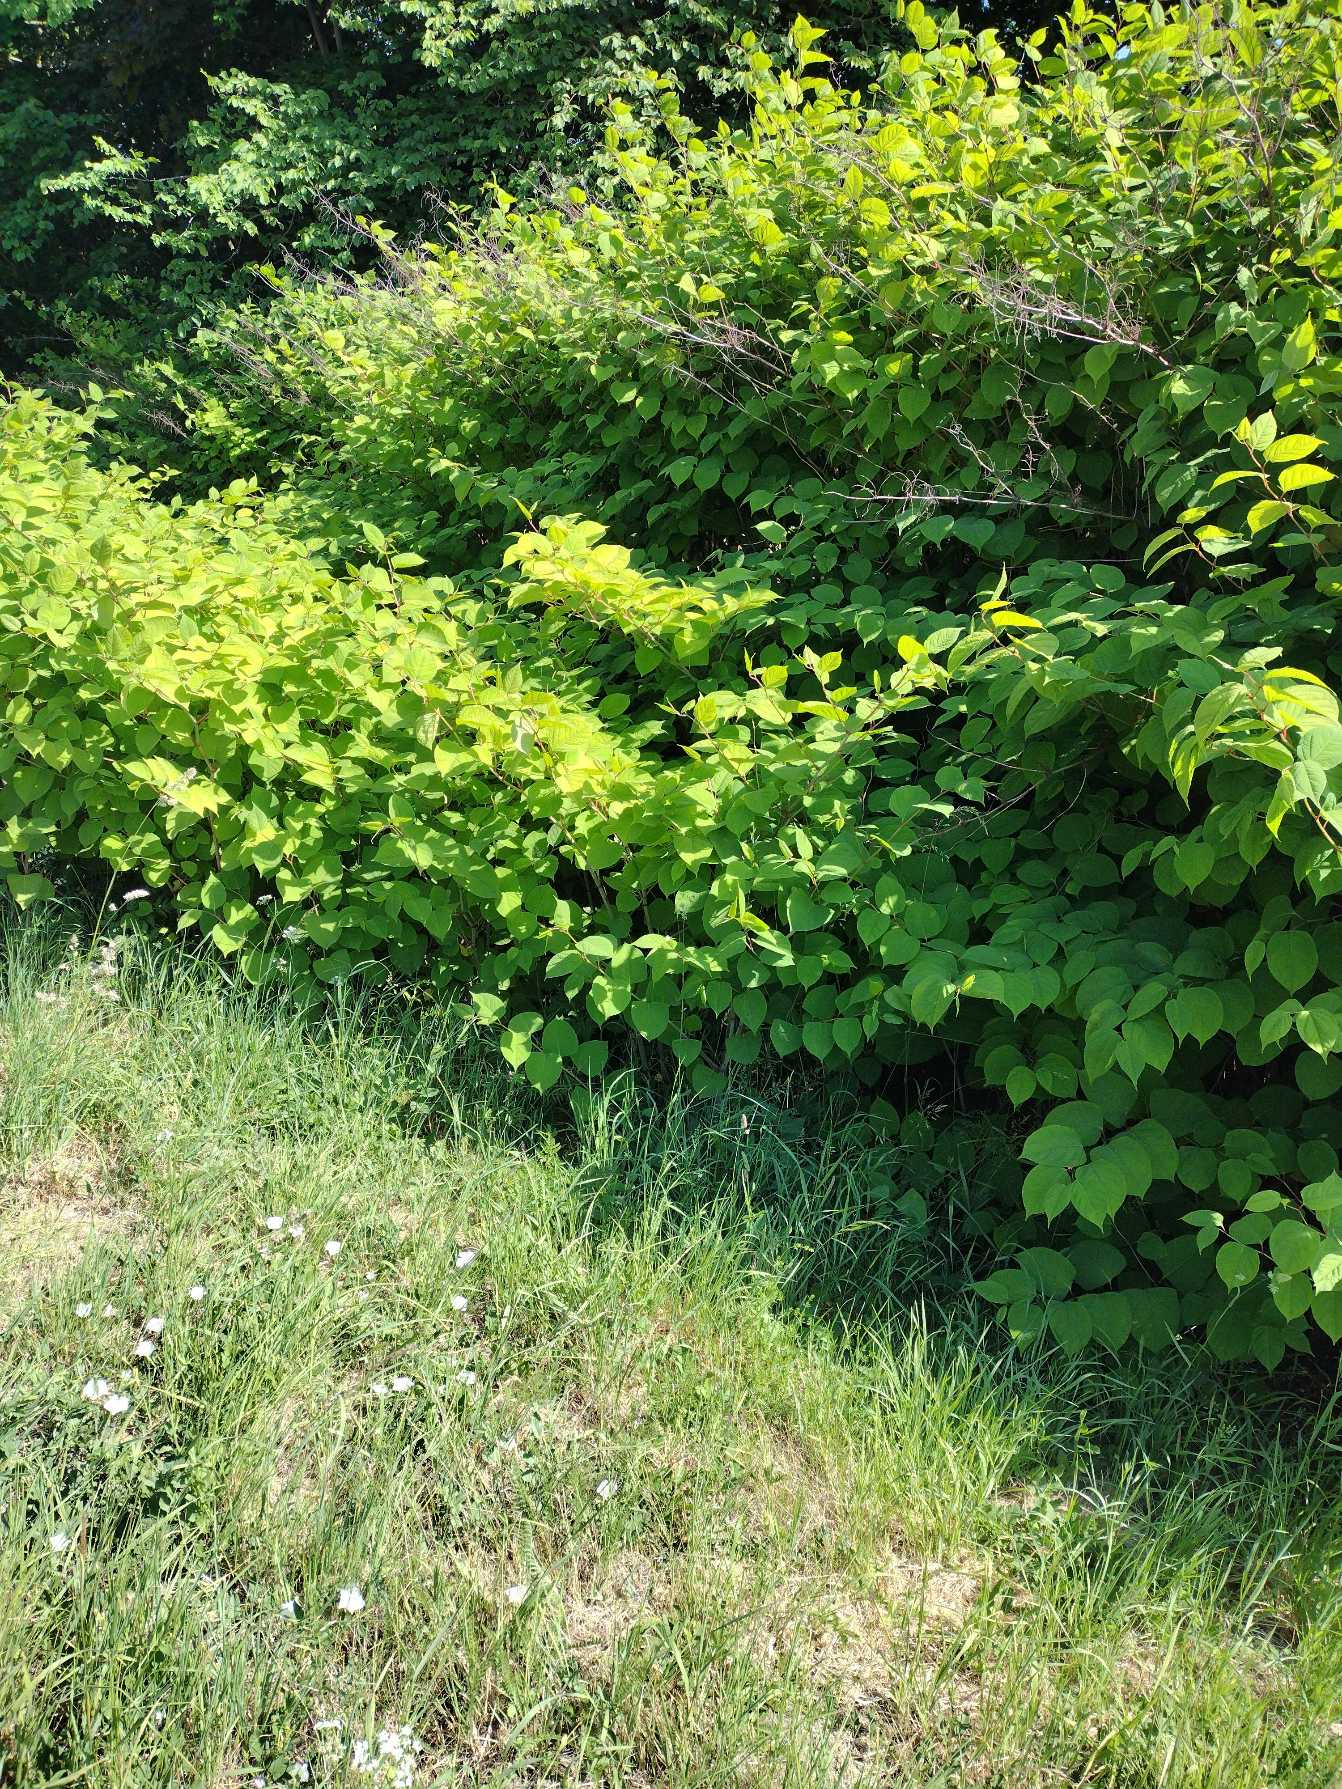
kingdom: Plantae
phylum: Tracheophyta
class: Magnoliopsida
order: Caryophyllales
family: Polygonaceae
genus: Reynoutria
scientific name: Reynoutria japonica
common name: Japan-pileurt
